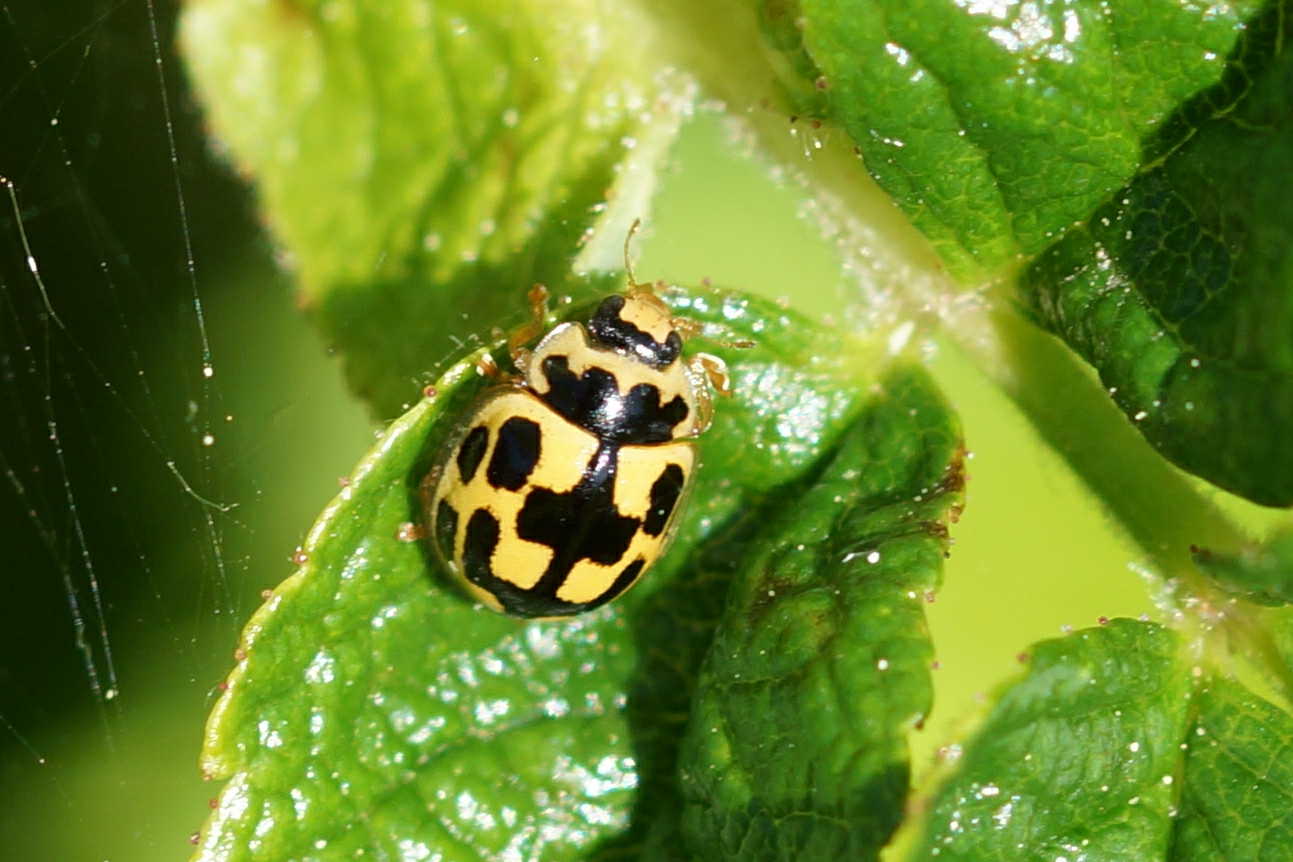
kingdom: Animalia
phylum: Arthropoda
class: Insecta
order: Coleoptera
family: Coccinellidae
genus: Propylaea
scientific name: Propylaea quatuordecimpunctata
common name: Skakbræt
